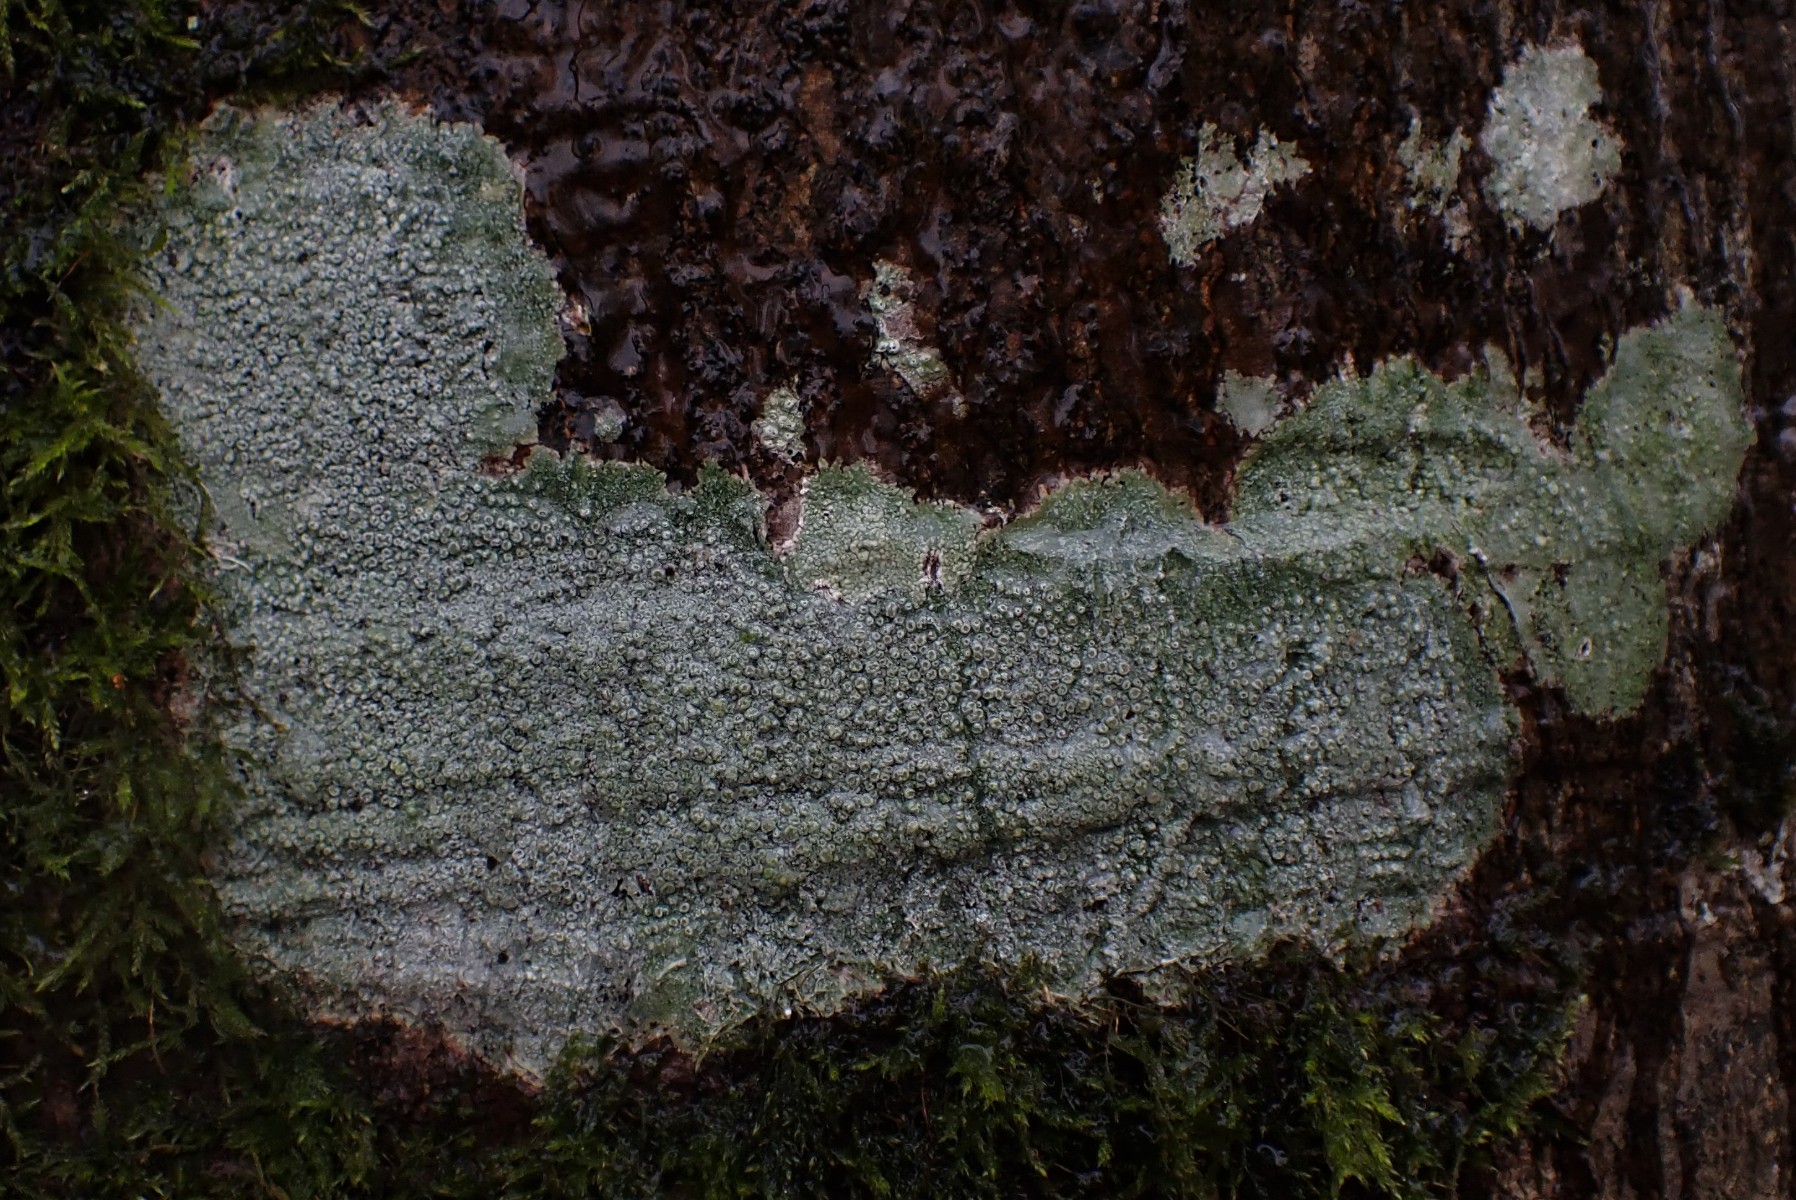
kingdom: Fungi
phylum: Ascomycota
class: Lecanoromycetes
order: Pertusariales
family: Pertusariaceae
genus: Pertusaria
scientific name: Pertusaria hymenea
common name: åben prikvortelav
